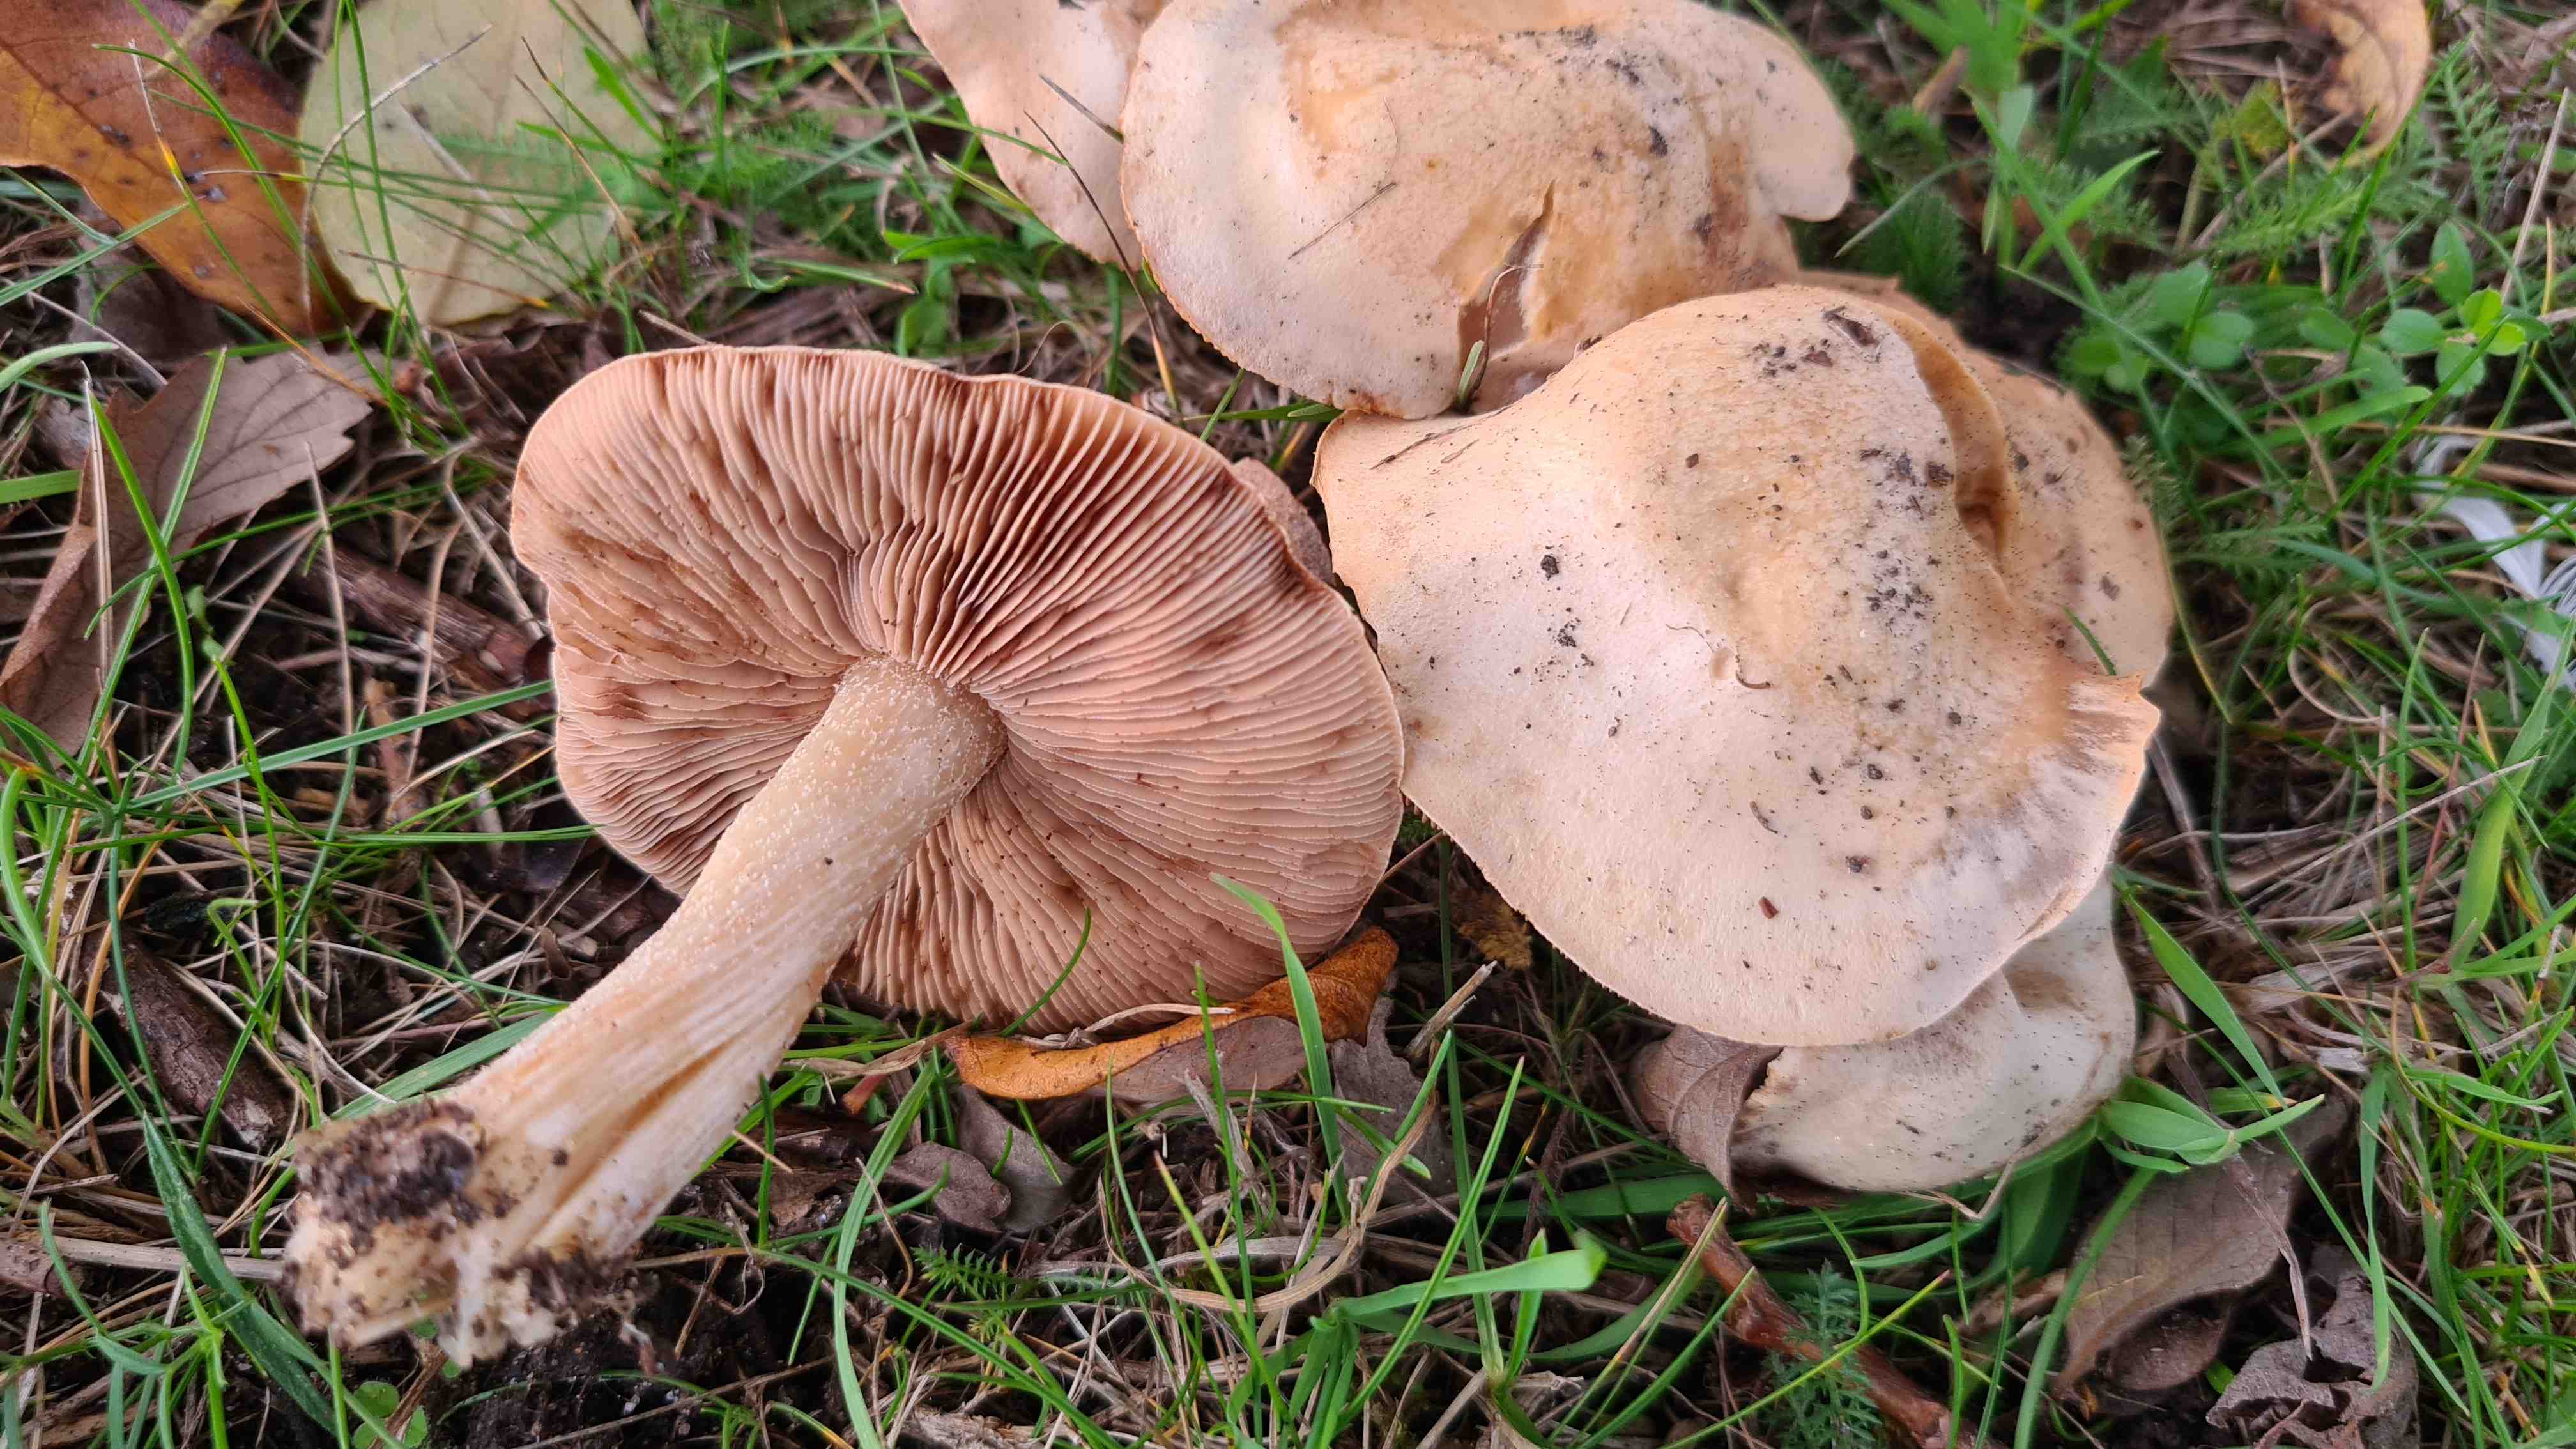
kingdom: Fungi
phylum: Basidiomycota
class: Agaricomycetes
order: Agaricales
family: Hymenogastraceae
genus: Hebeloma
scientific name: Hebeloma
